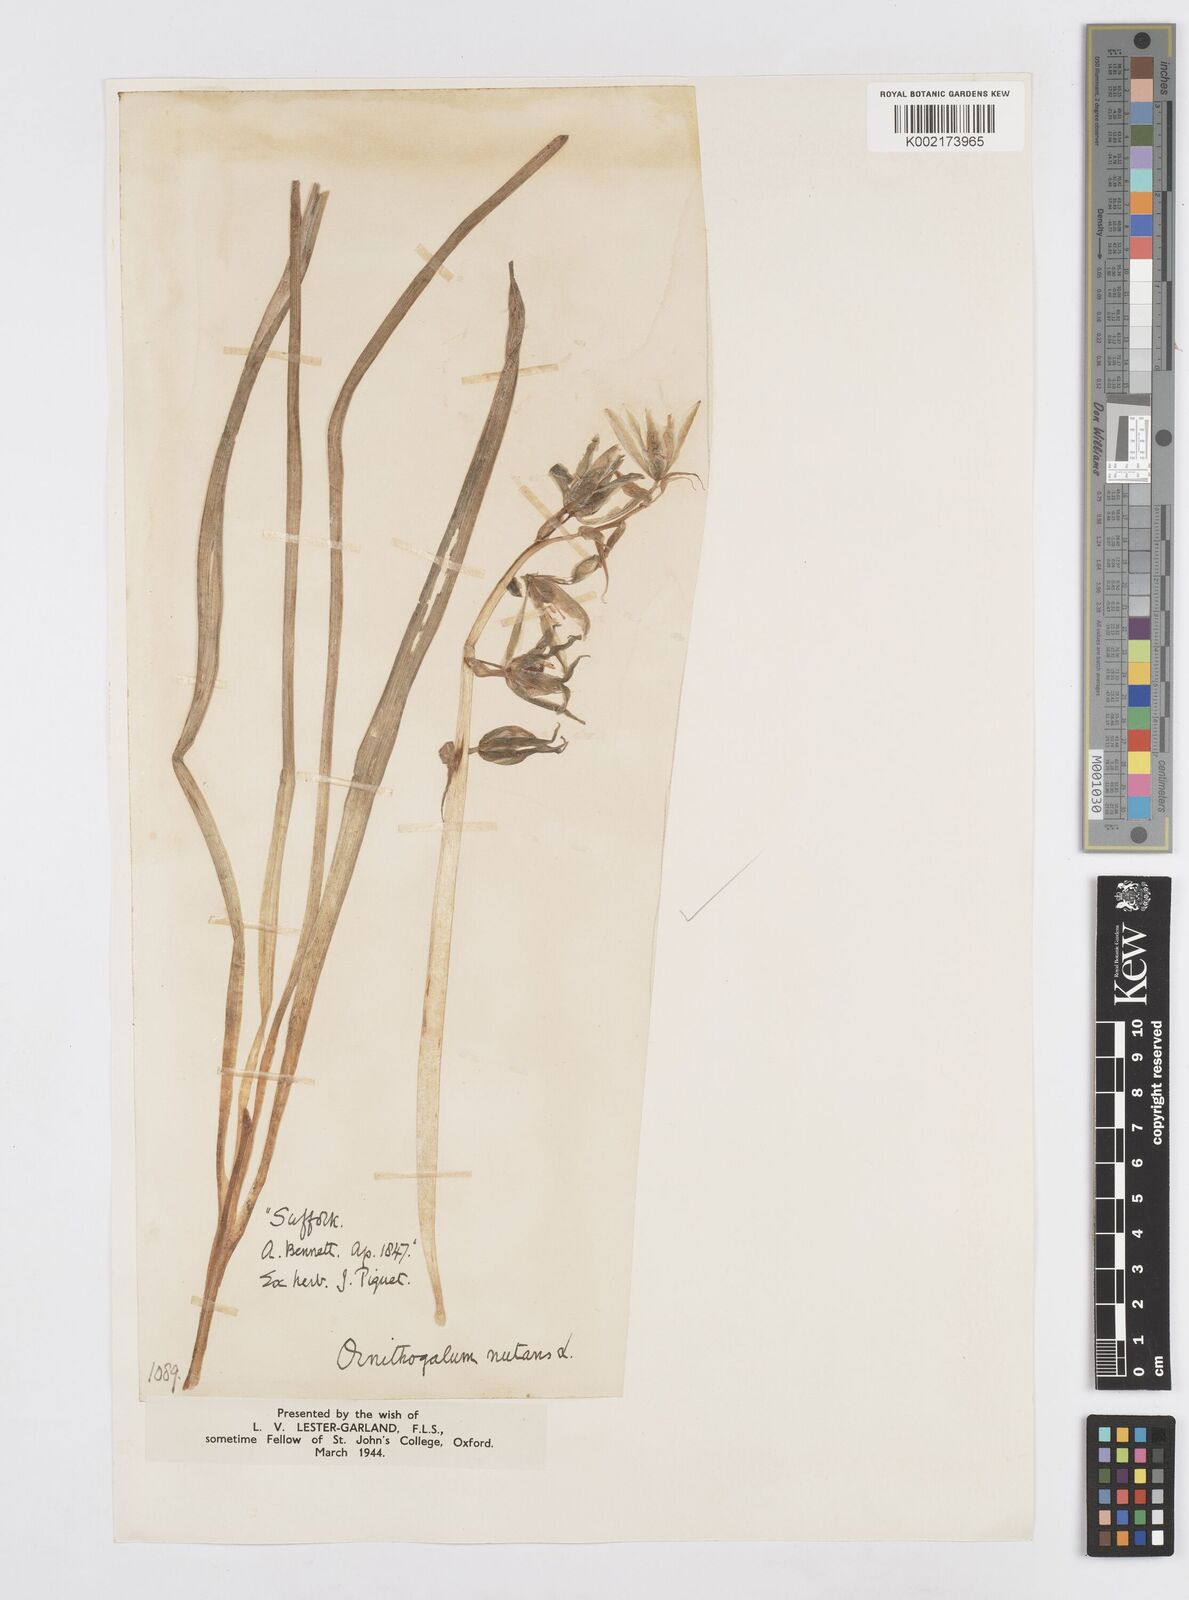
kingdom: Plantae
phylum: Tracheophyta
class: Liliopsida
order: Asparagales
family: Asparagaceae
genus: Ornithogalum
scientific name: Ornithogalum nutans
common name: Drooping star-of-bethlehem
